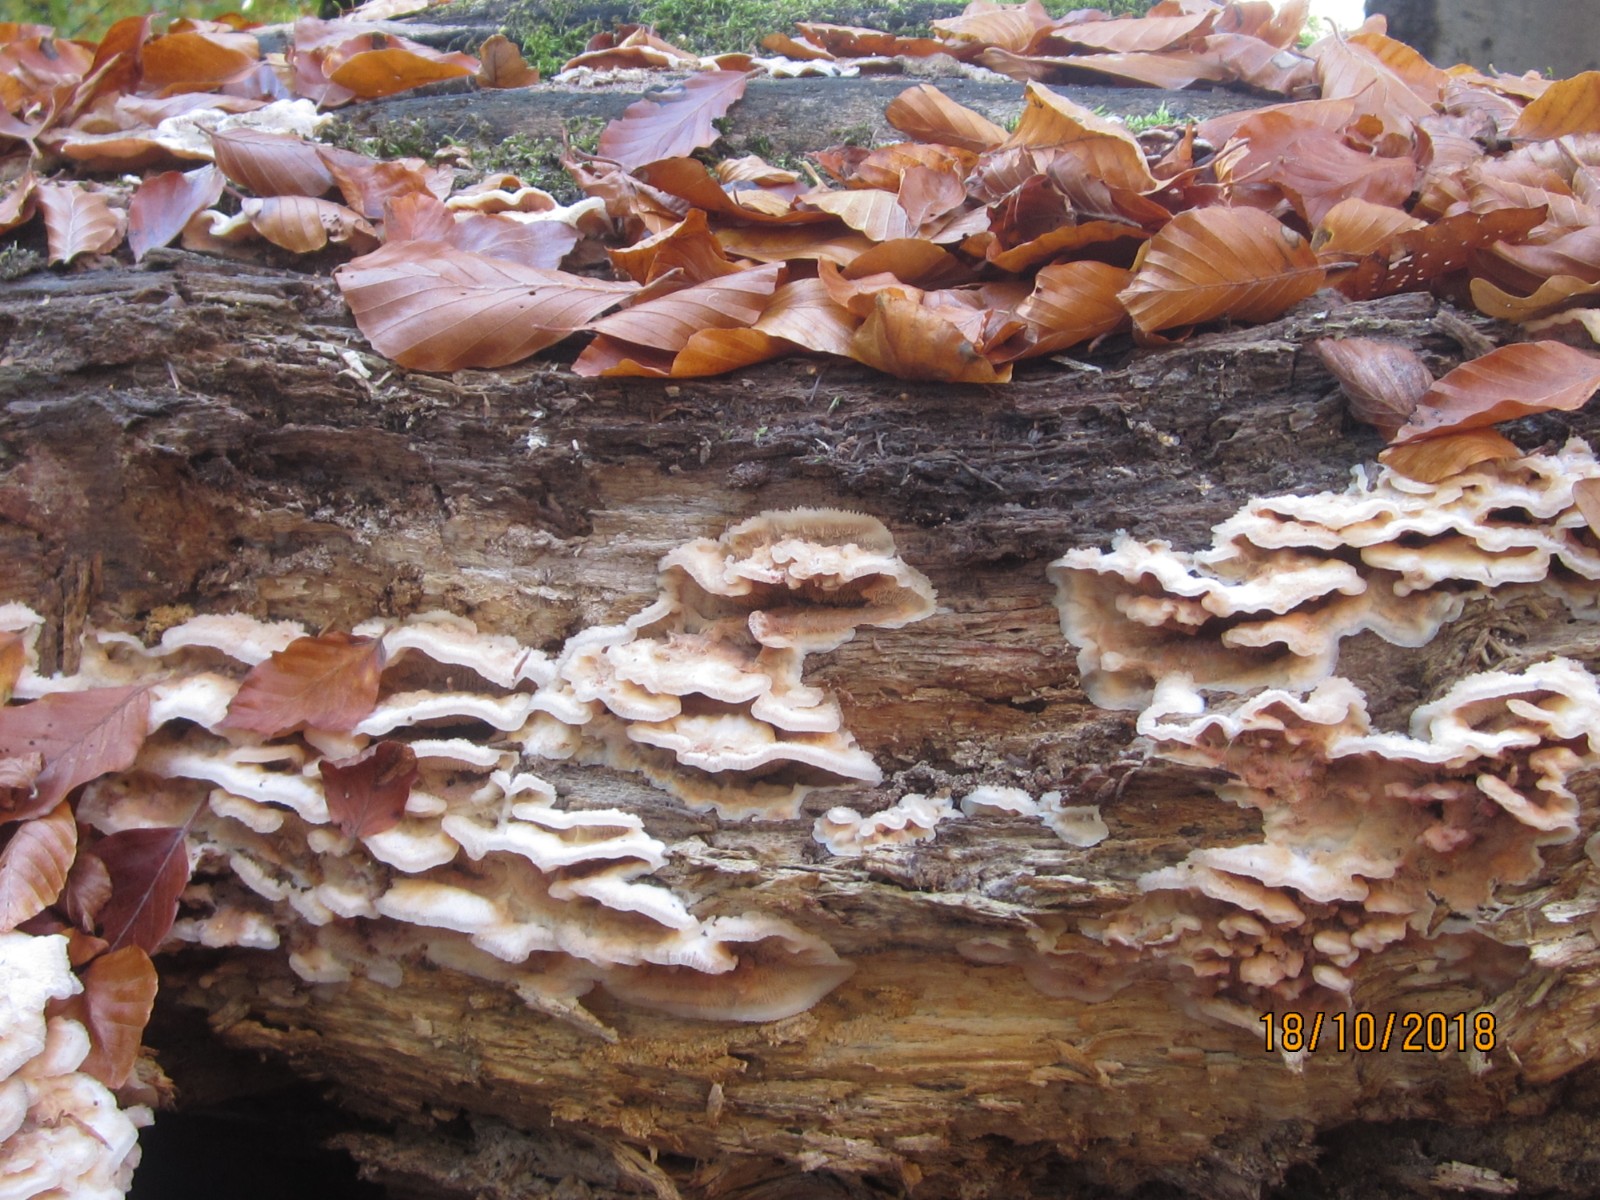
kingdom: Fungi
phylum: Basidiomycota
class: Agaricomycetes
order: Polyporales
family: Meruliaceae
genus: Phlebia
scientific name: Phlebia tremellosa
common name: bævrende åresvamp
